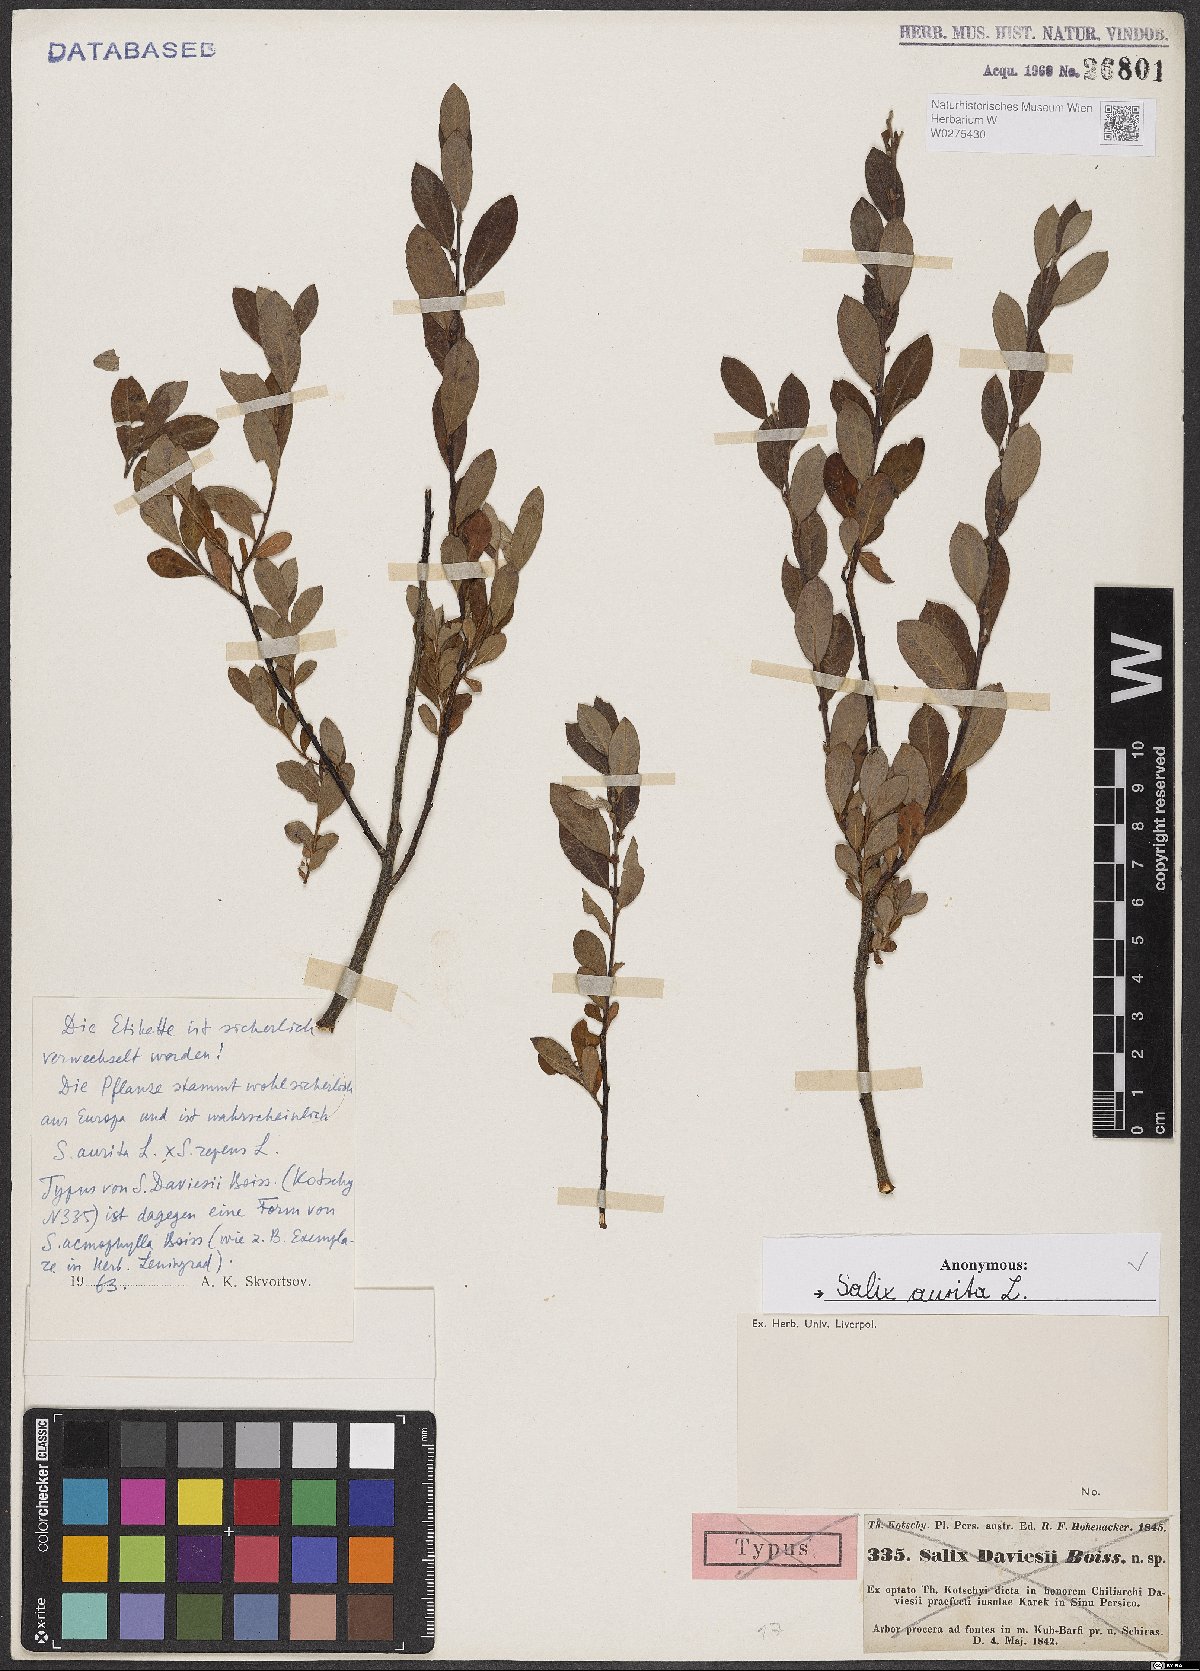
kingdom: Plantae
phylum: Tracheophyta
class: Magnoliopsida
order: Malpighiales
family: Salicaceae
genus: Salix
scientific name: Salix aurita
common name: Eared willow
